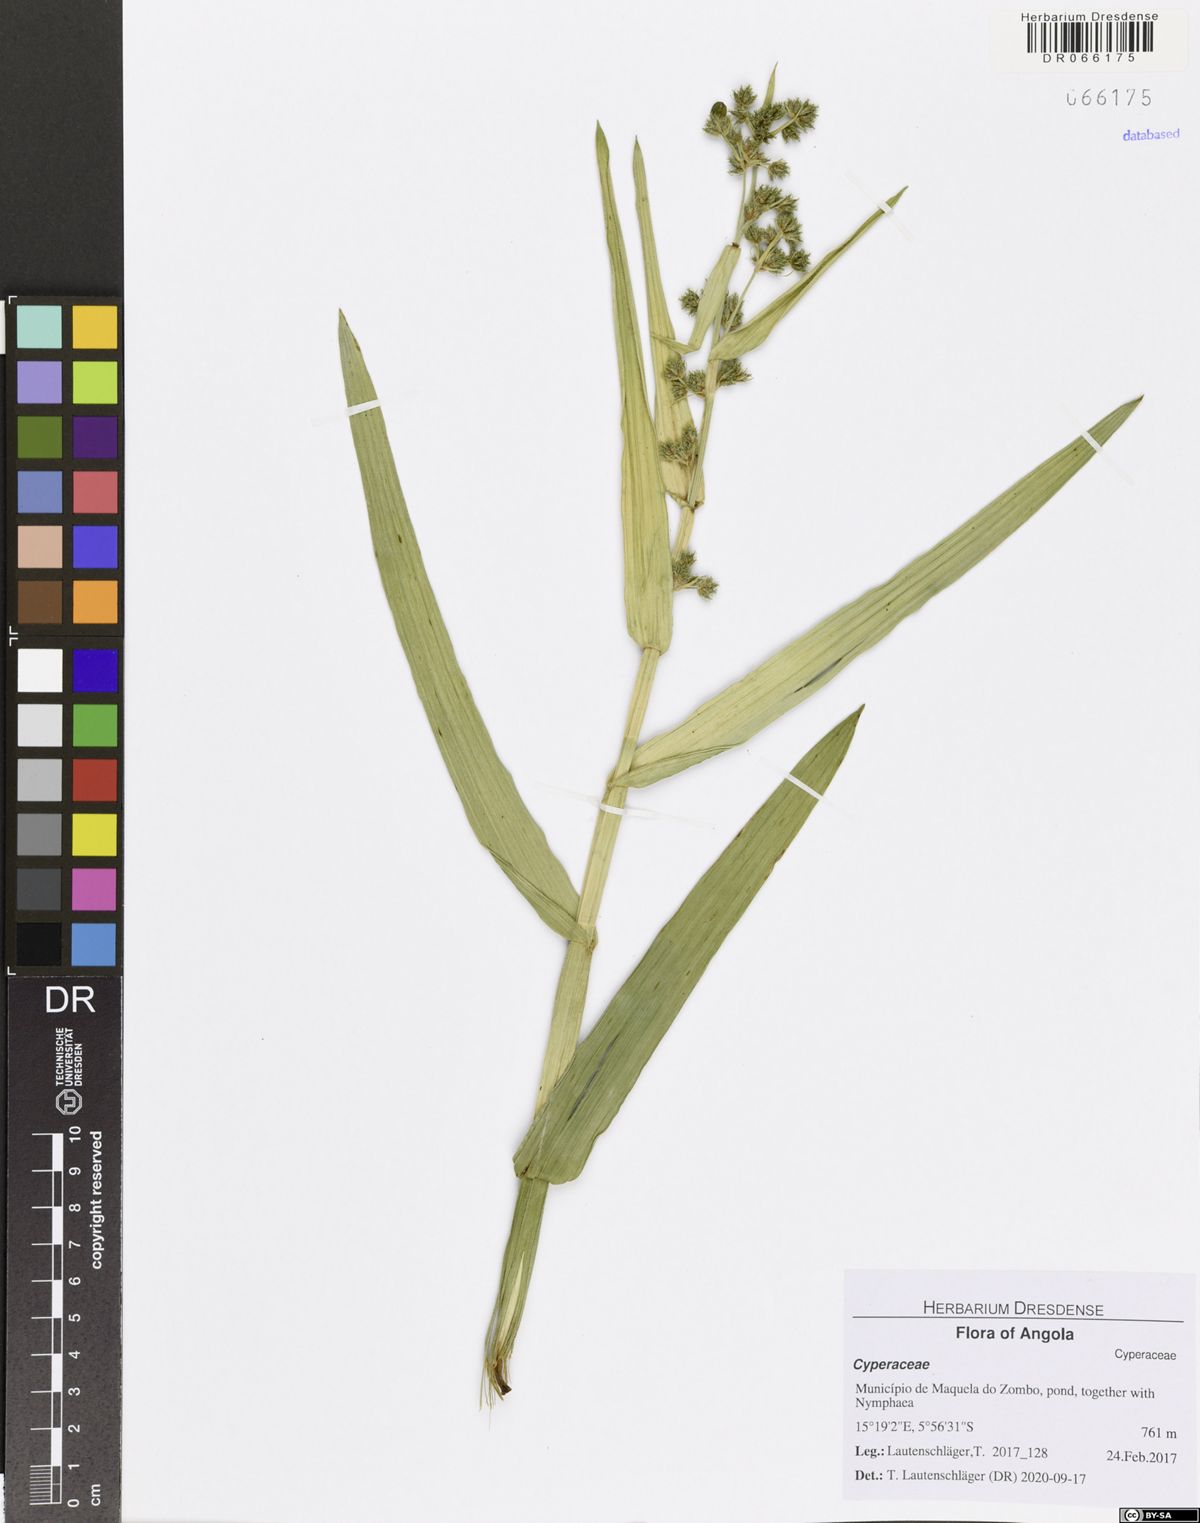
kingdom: Plantae
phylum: Tracheophyta
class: Liliopsida
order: Poales
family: Cyperaceae
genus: Fuirena
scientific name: Fuirena umbellata
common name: Yefen
